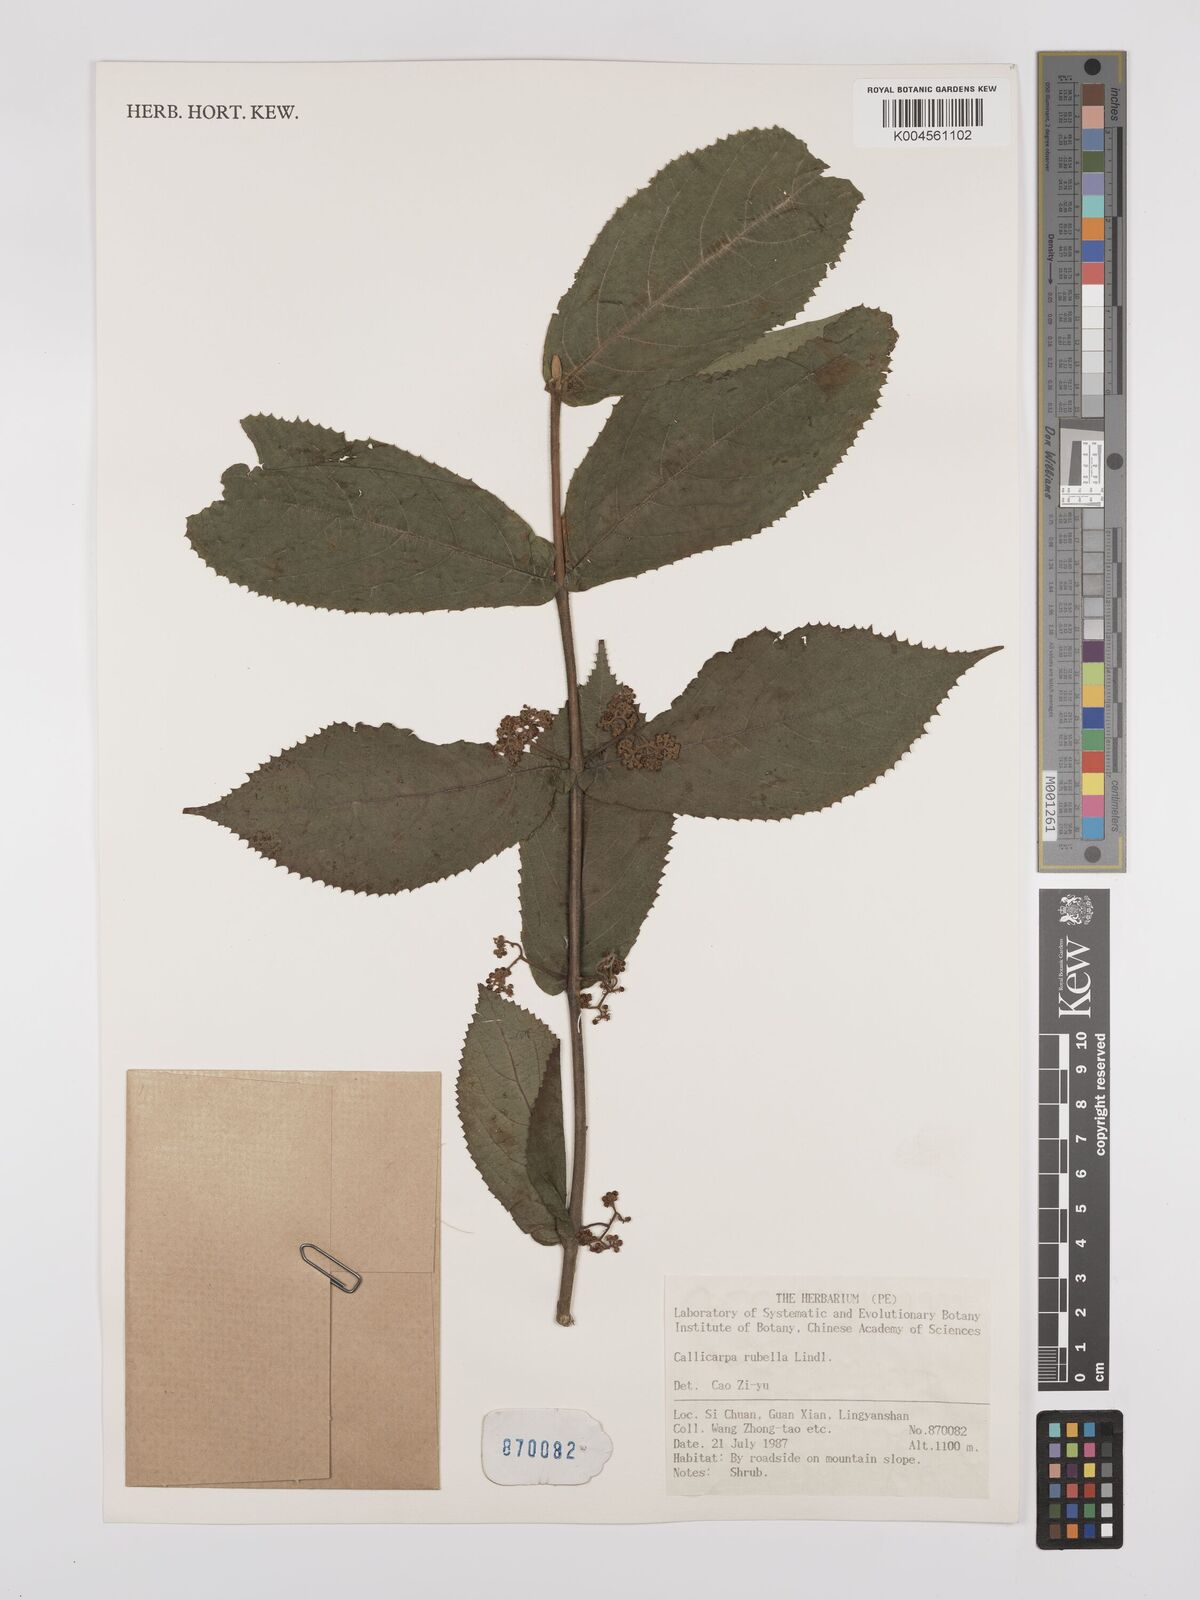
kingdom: Plantae
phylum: Tracheophyta
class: Magnoliopsida
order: Lamiales
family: Lamiaceae
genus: Callicarpa
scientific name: Callicarpa rubella
